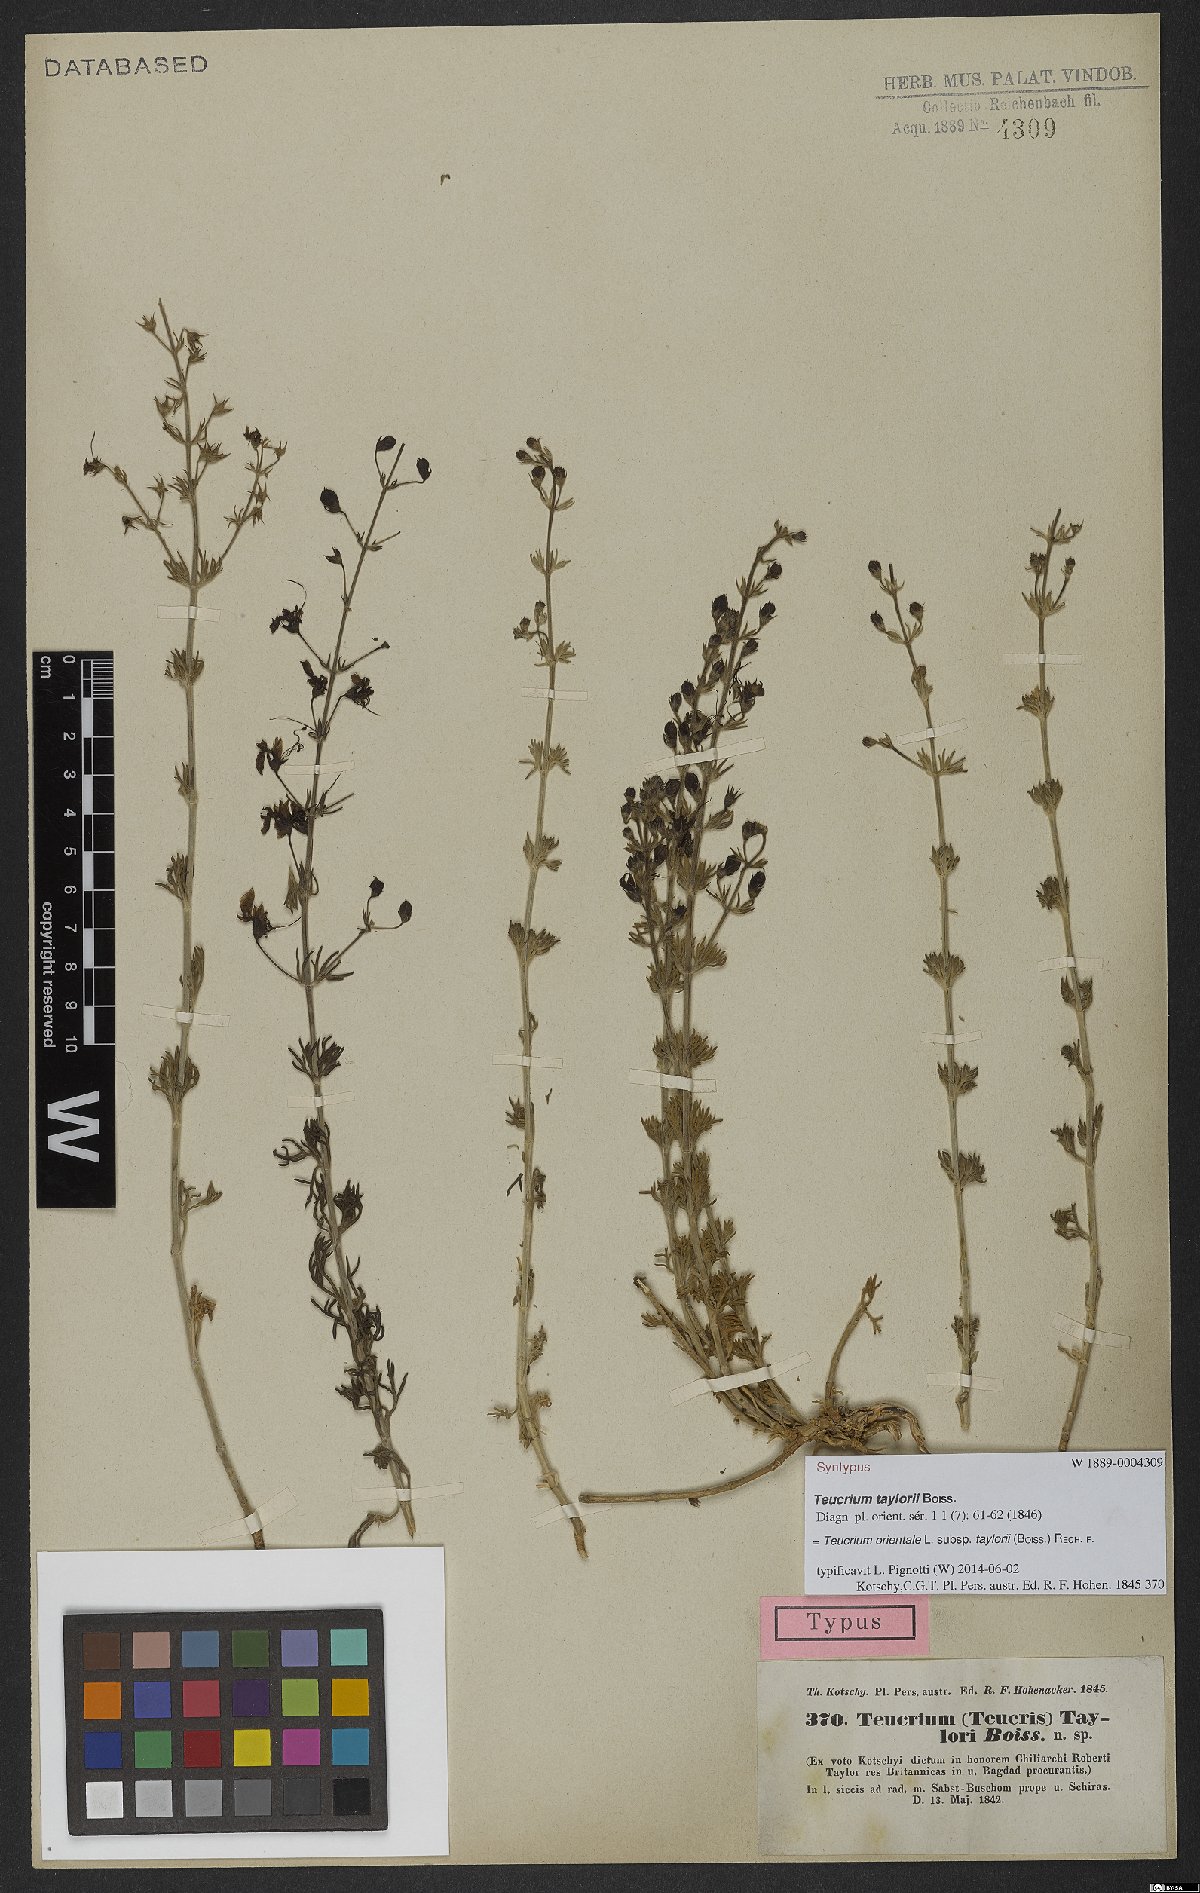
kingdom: Plantae
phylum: Tracheophyta
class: Magnoliopsida
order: Lamiales
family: Lamiaceae
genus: Teucrium
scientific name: Teucrium orientale
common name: Oriental germander
